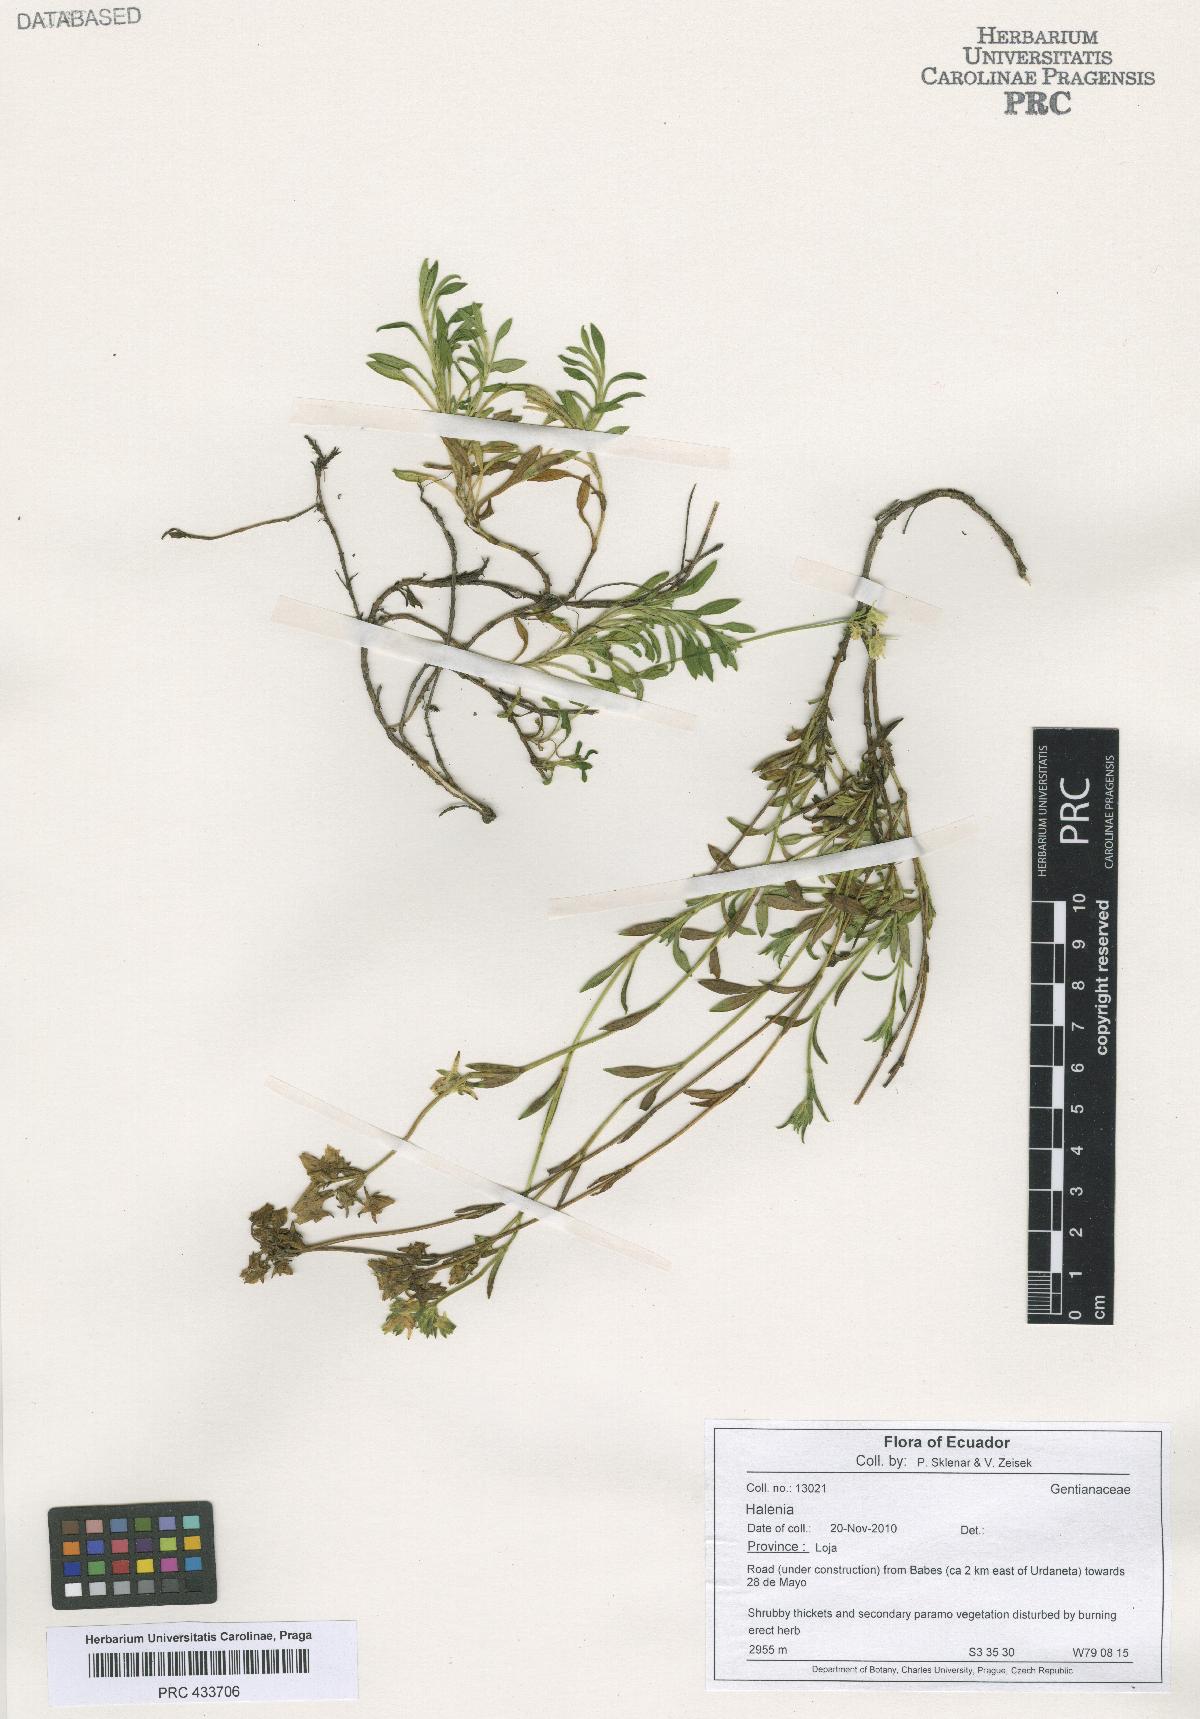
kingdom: Plantae
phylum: Tracheophyta
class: Magnoliopsida
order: Gentianales
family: Gentianaceae
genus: Halenia
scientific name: Halenia
